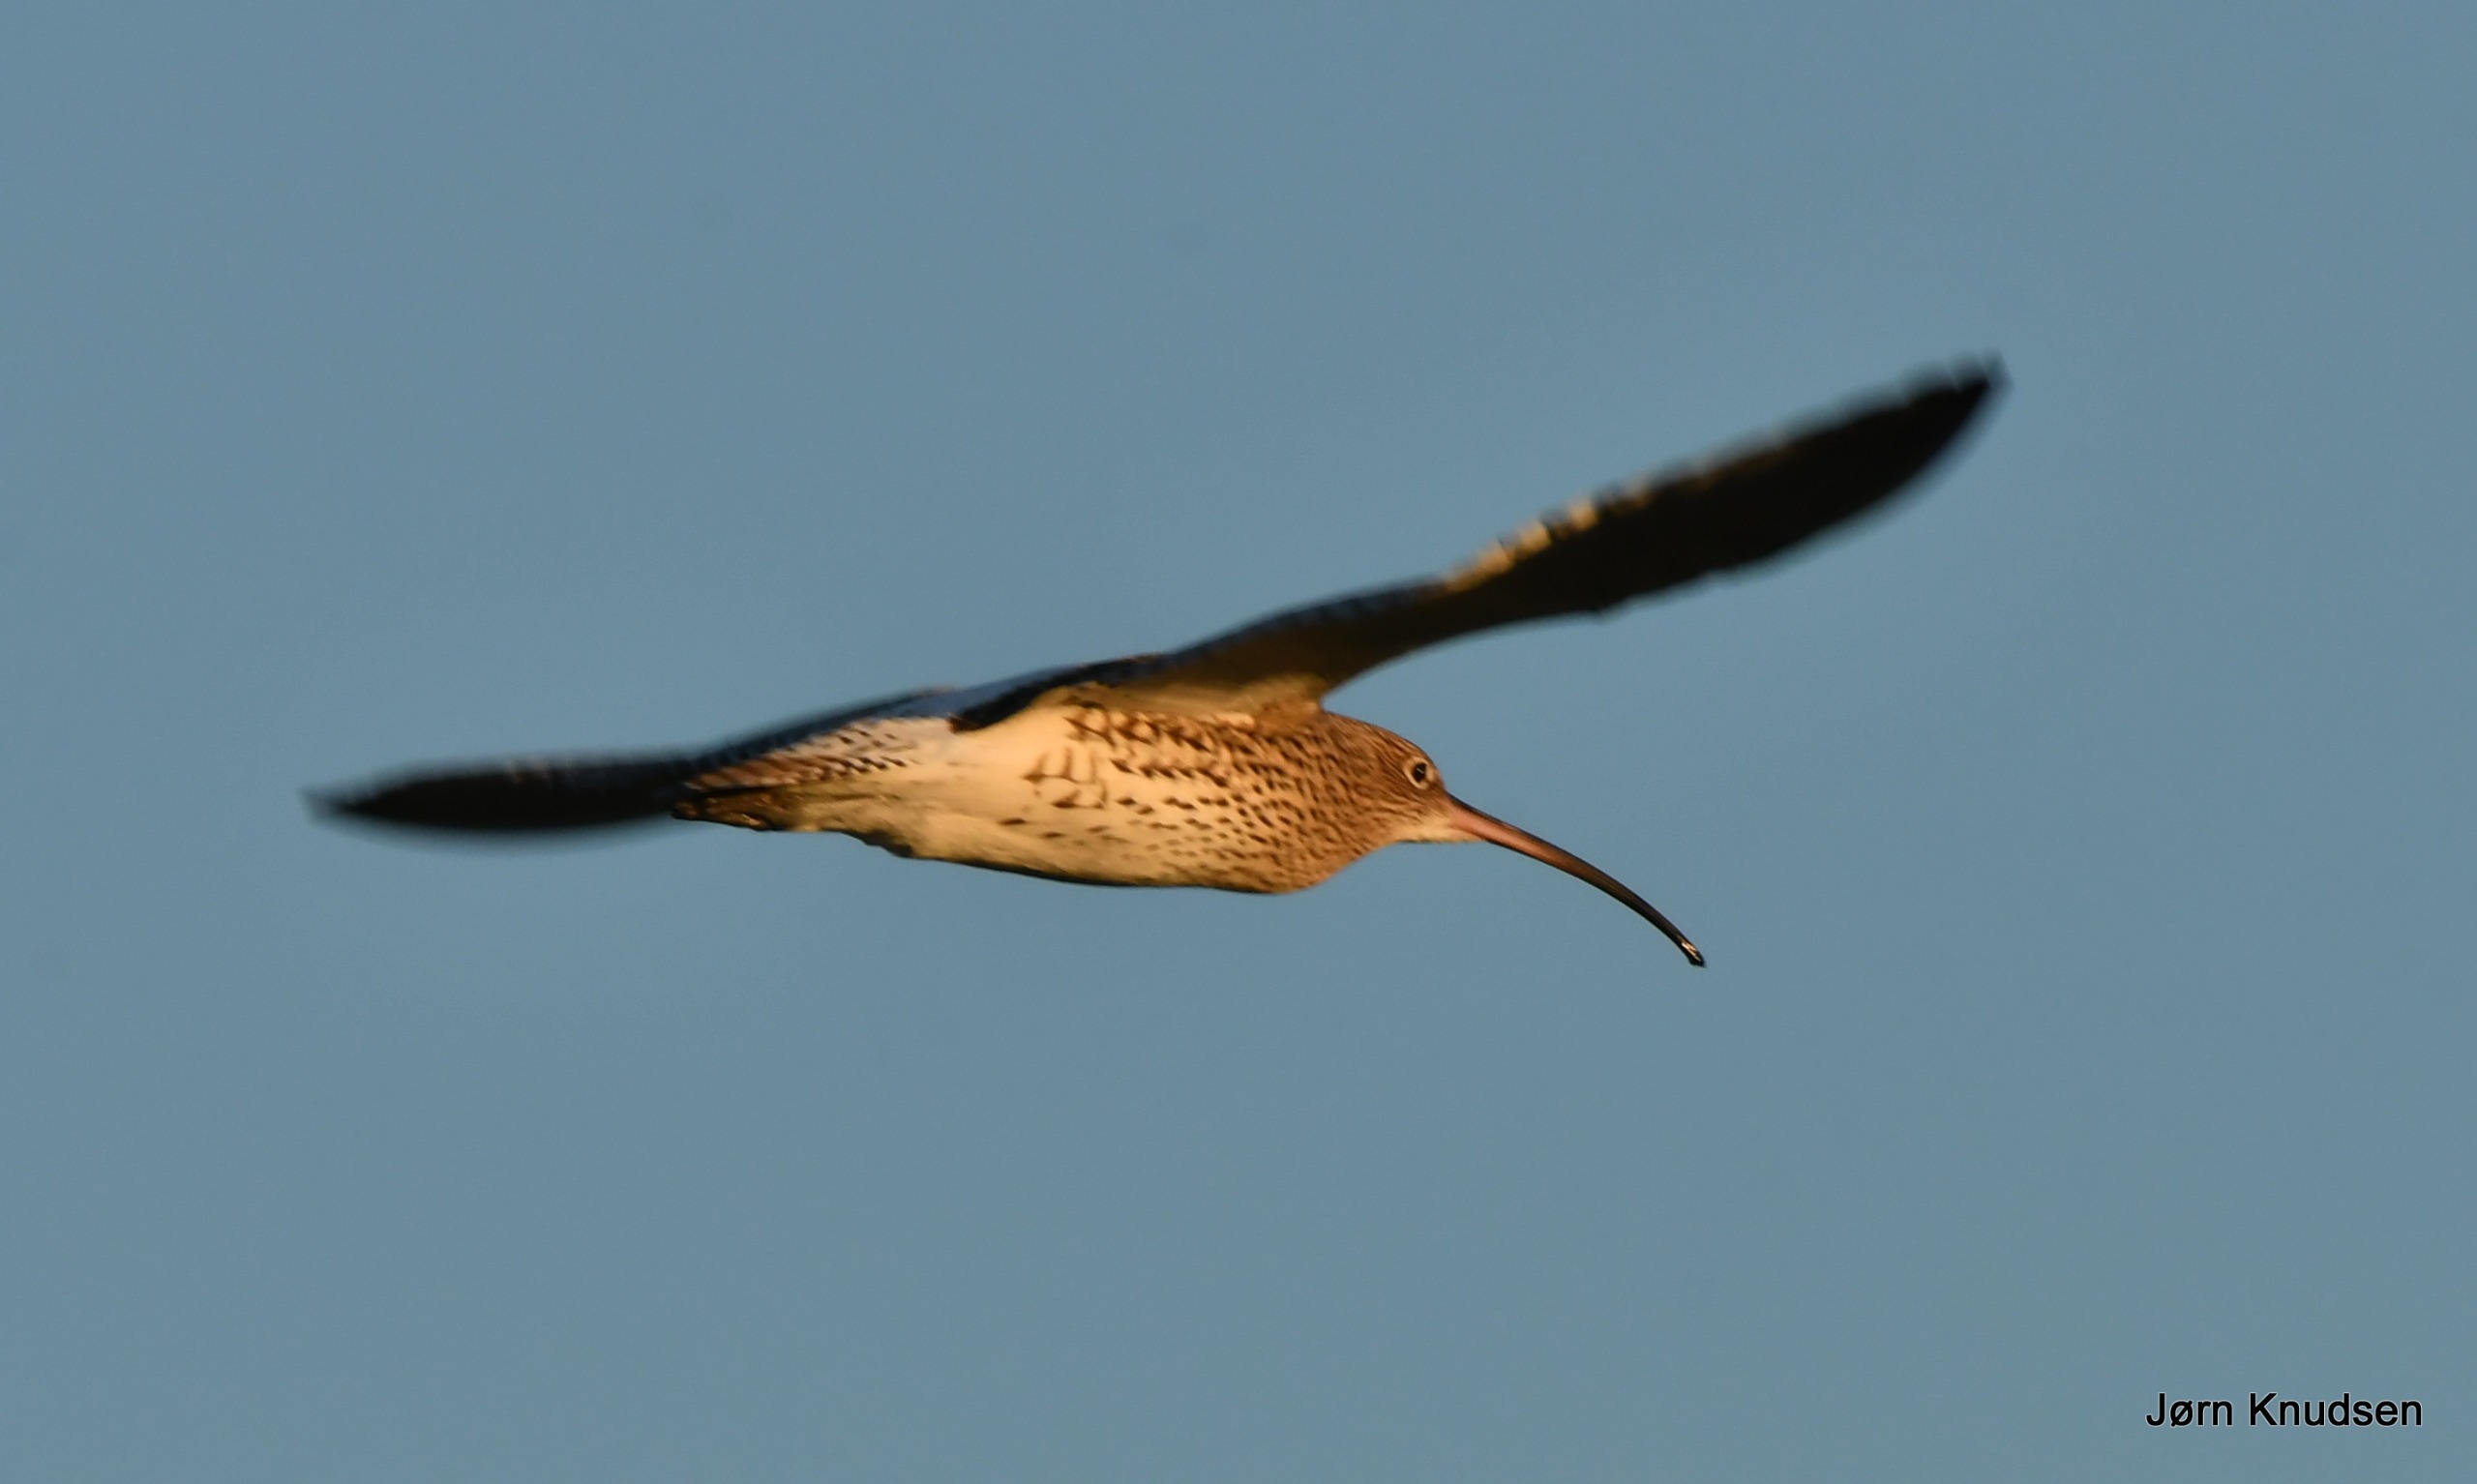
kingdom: Animalia
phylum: Chordata
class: Aves
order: Charadriiformes
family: Scolopacidae
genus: Numenius
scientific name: Numenius arquata
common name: Storspove
